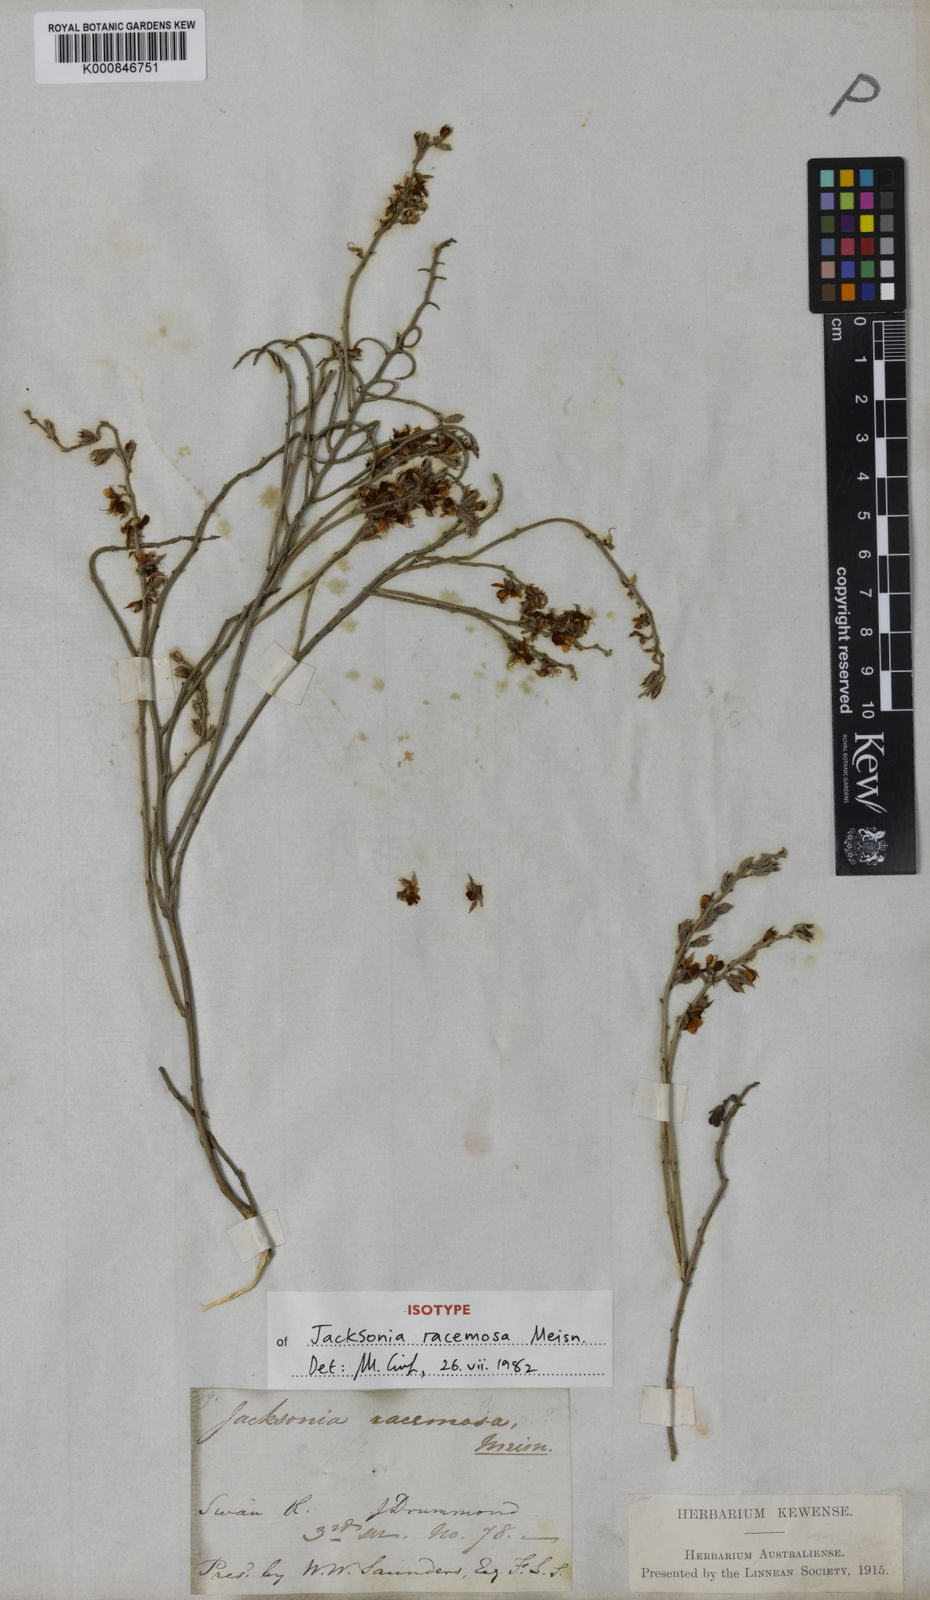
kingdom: Plantae
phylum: Tracheophyta
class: Magnoliopsida
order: Fabales
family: Fabaceae
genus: Jacksonia
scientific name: Jacksonia racemosa
